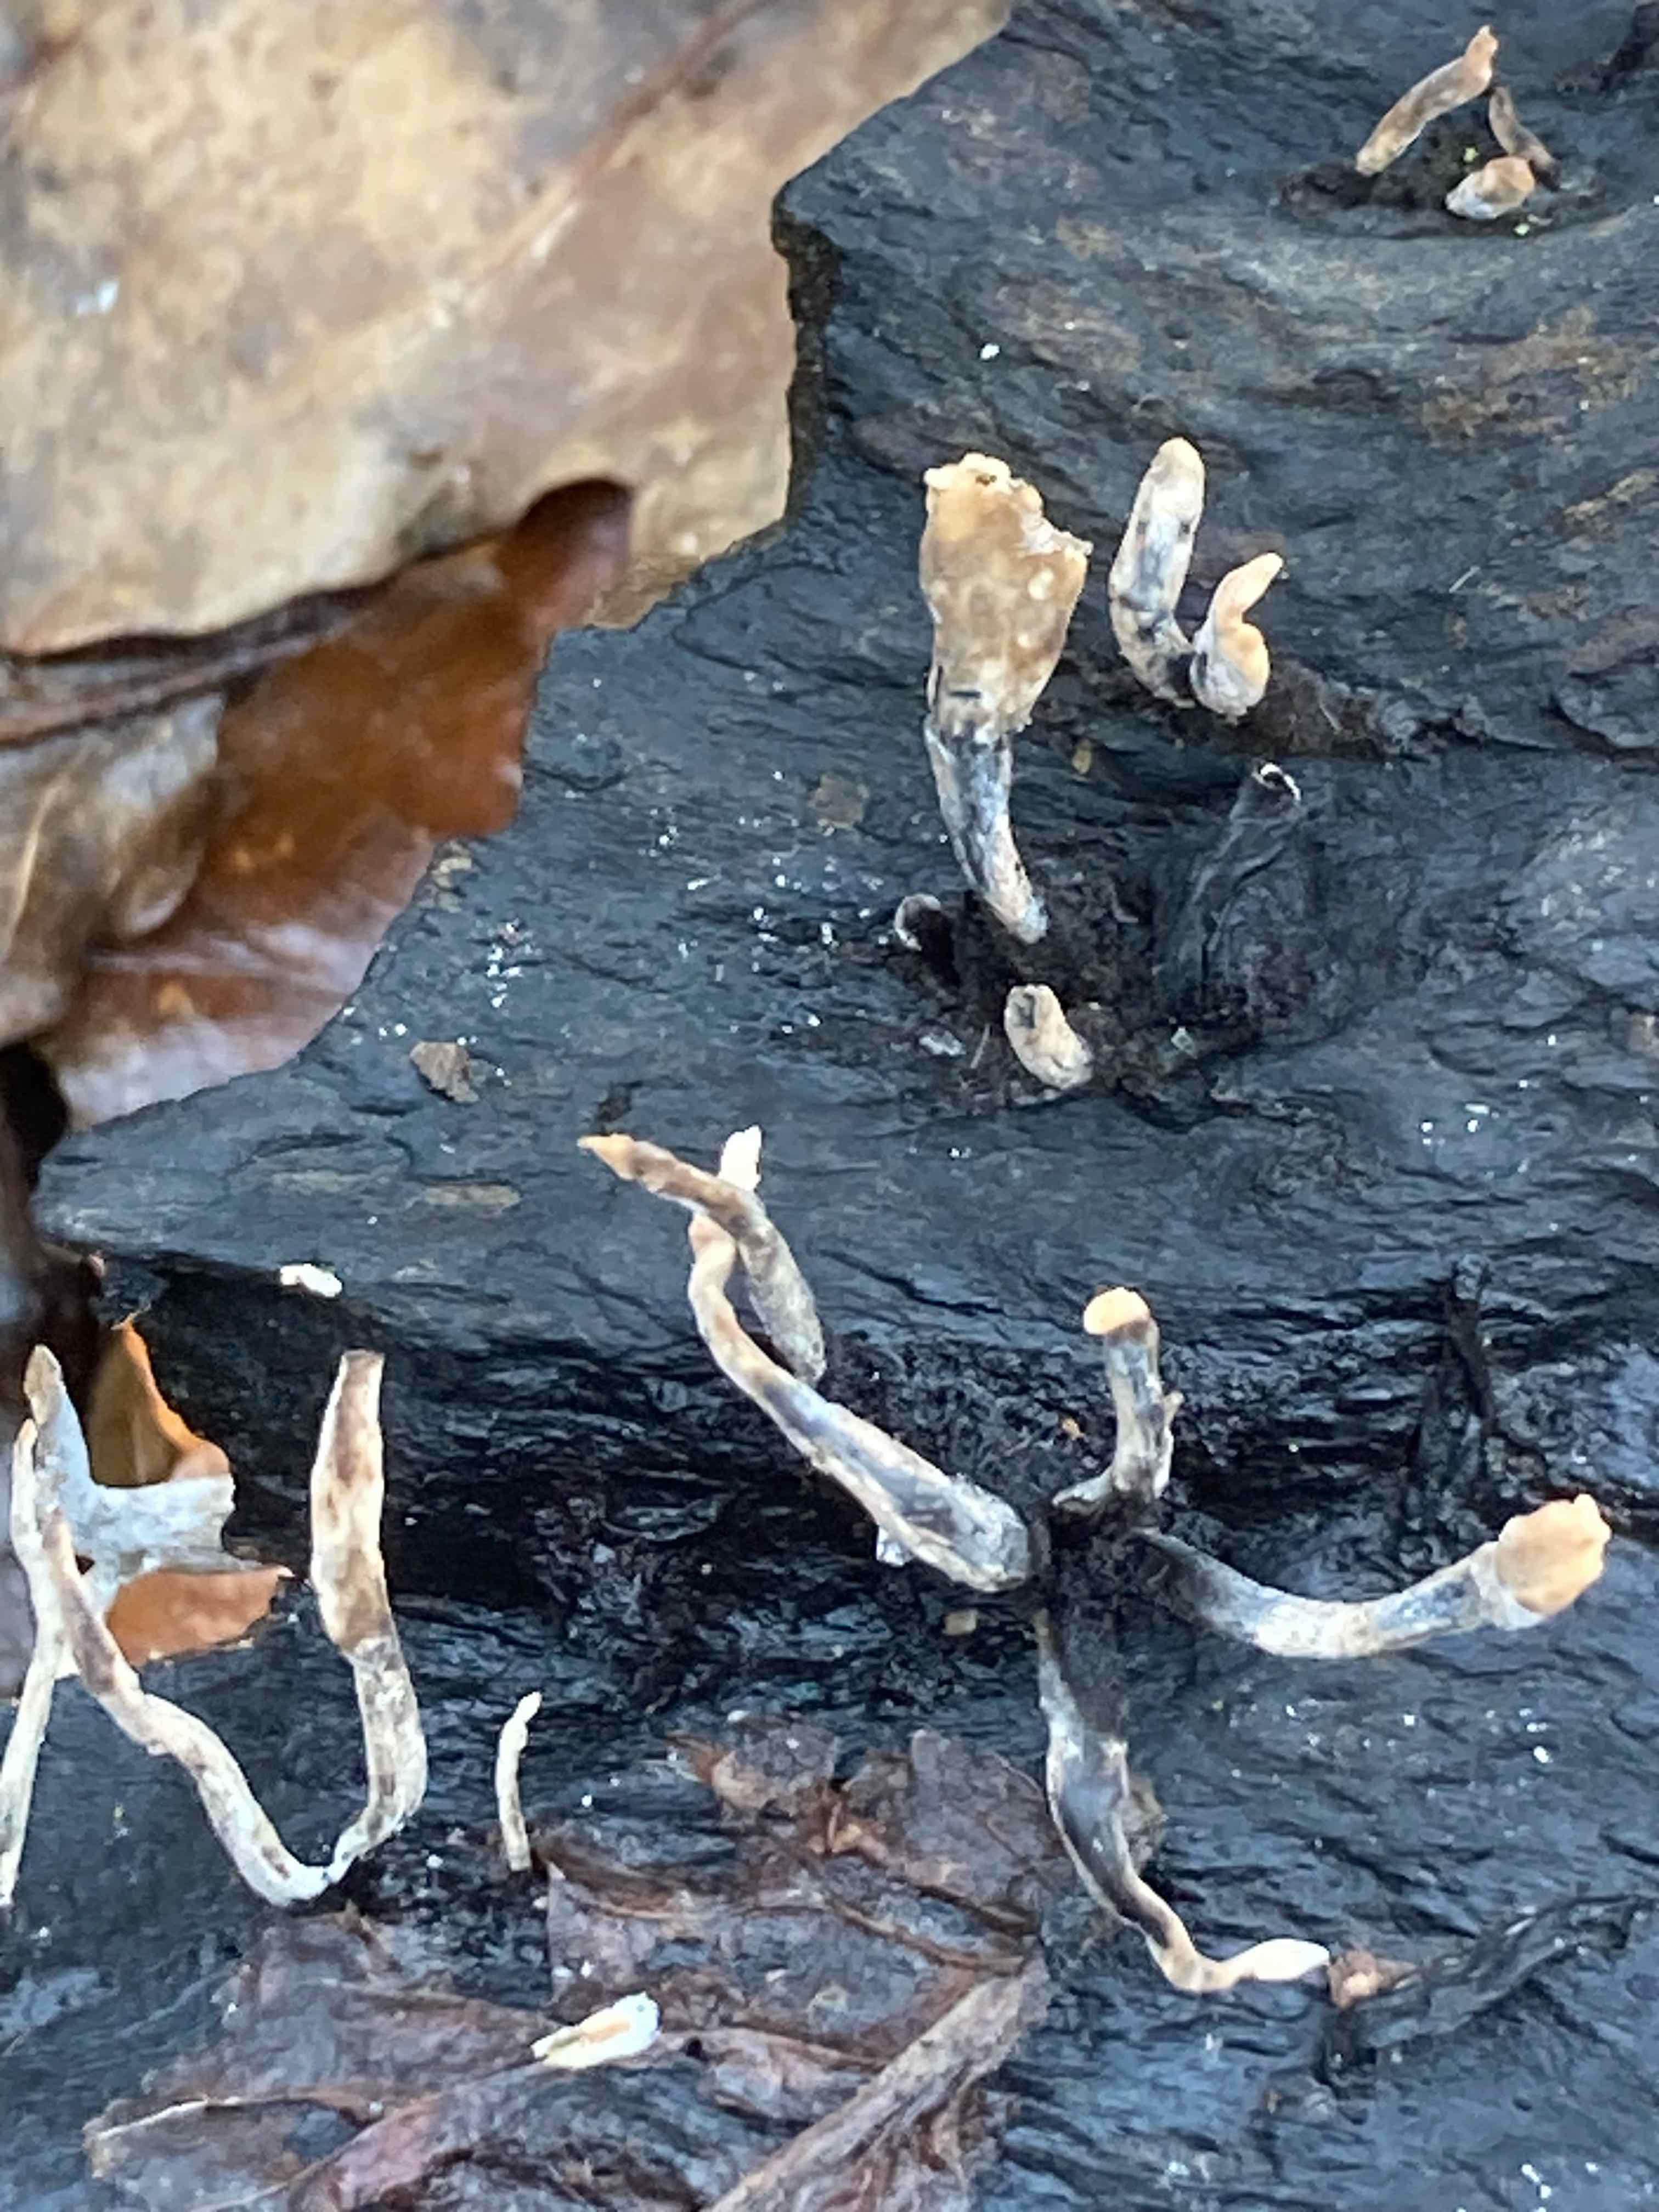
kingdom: Fungi
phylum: Ascomycota
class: Sordariomycetes
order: Xylariales
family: Xylariaceae
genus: Xylaria
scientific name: Xylaria hypoxylon
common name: grenet stødsvamp
